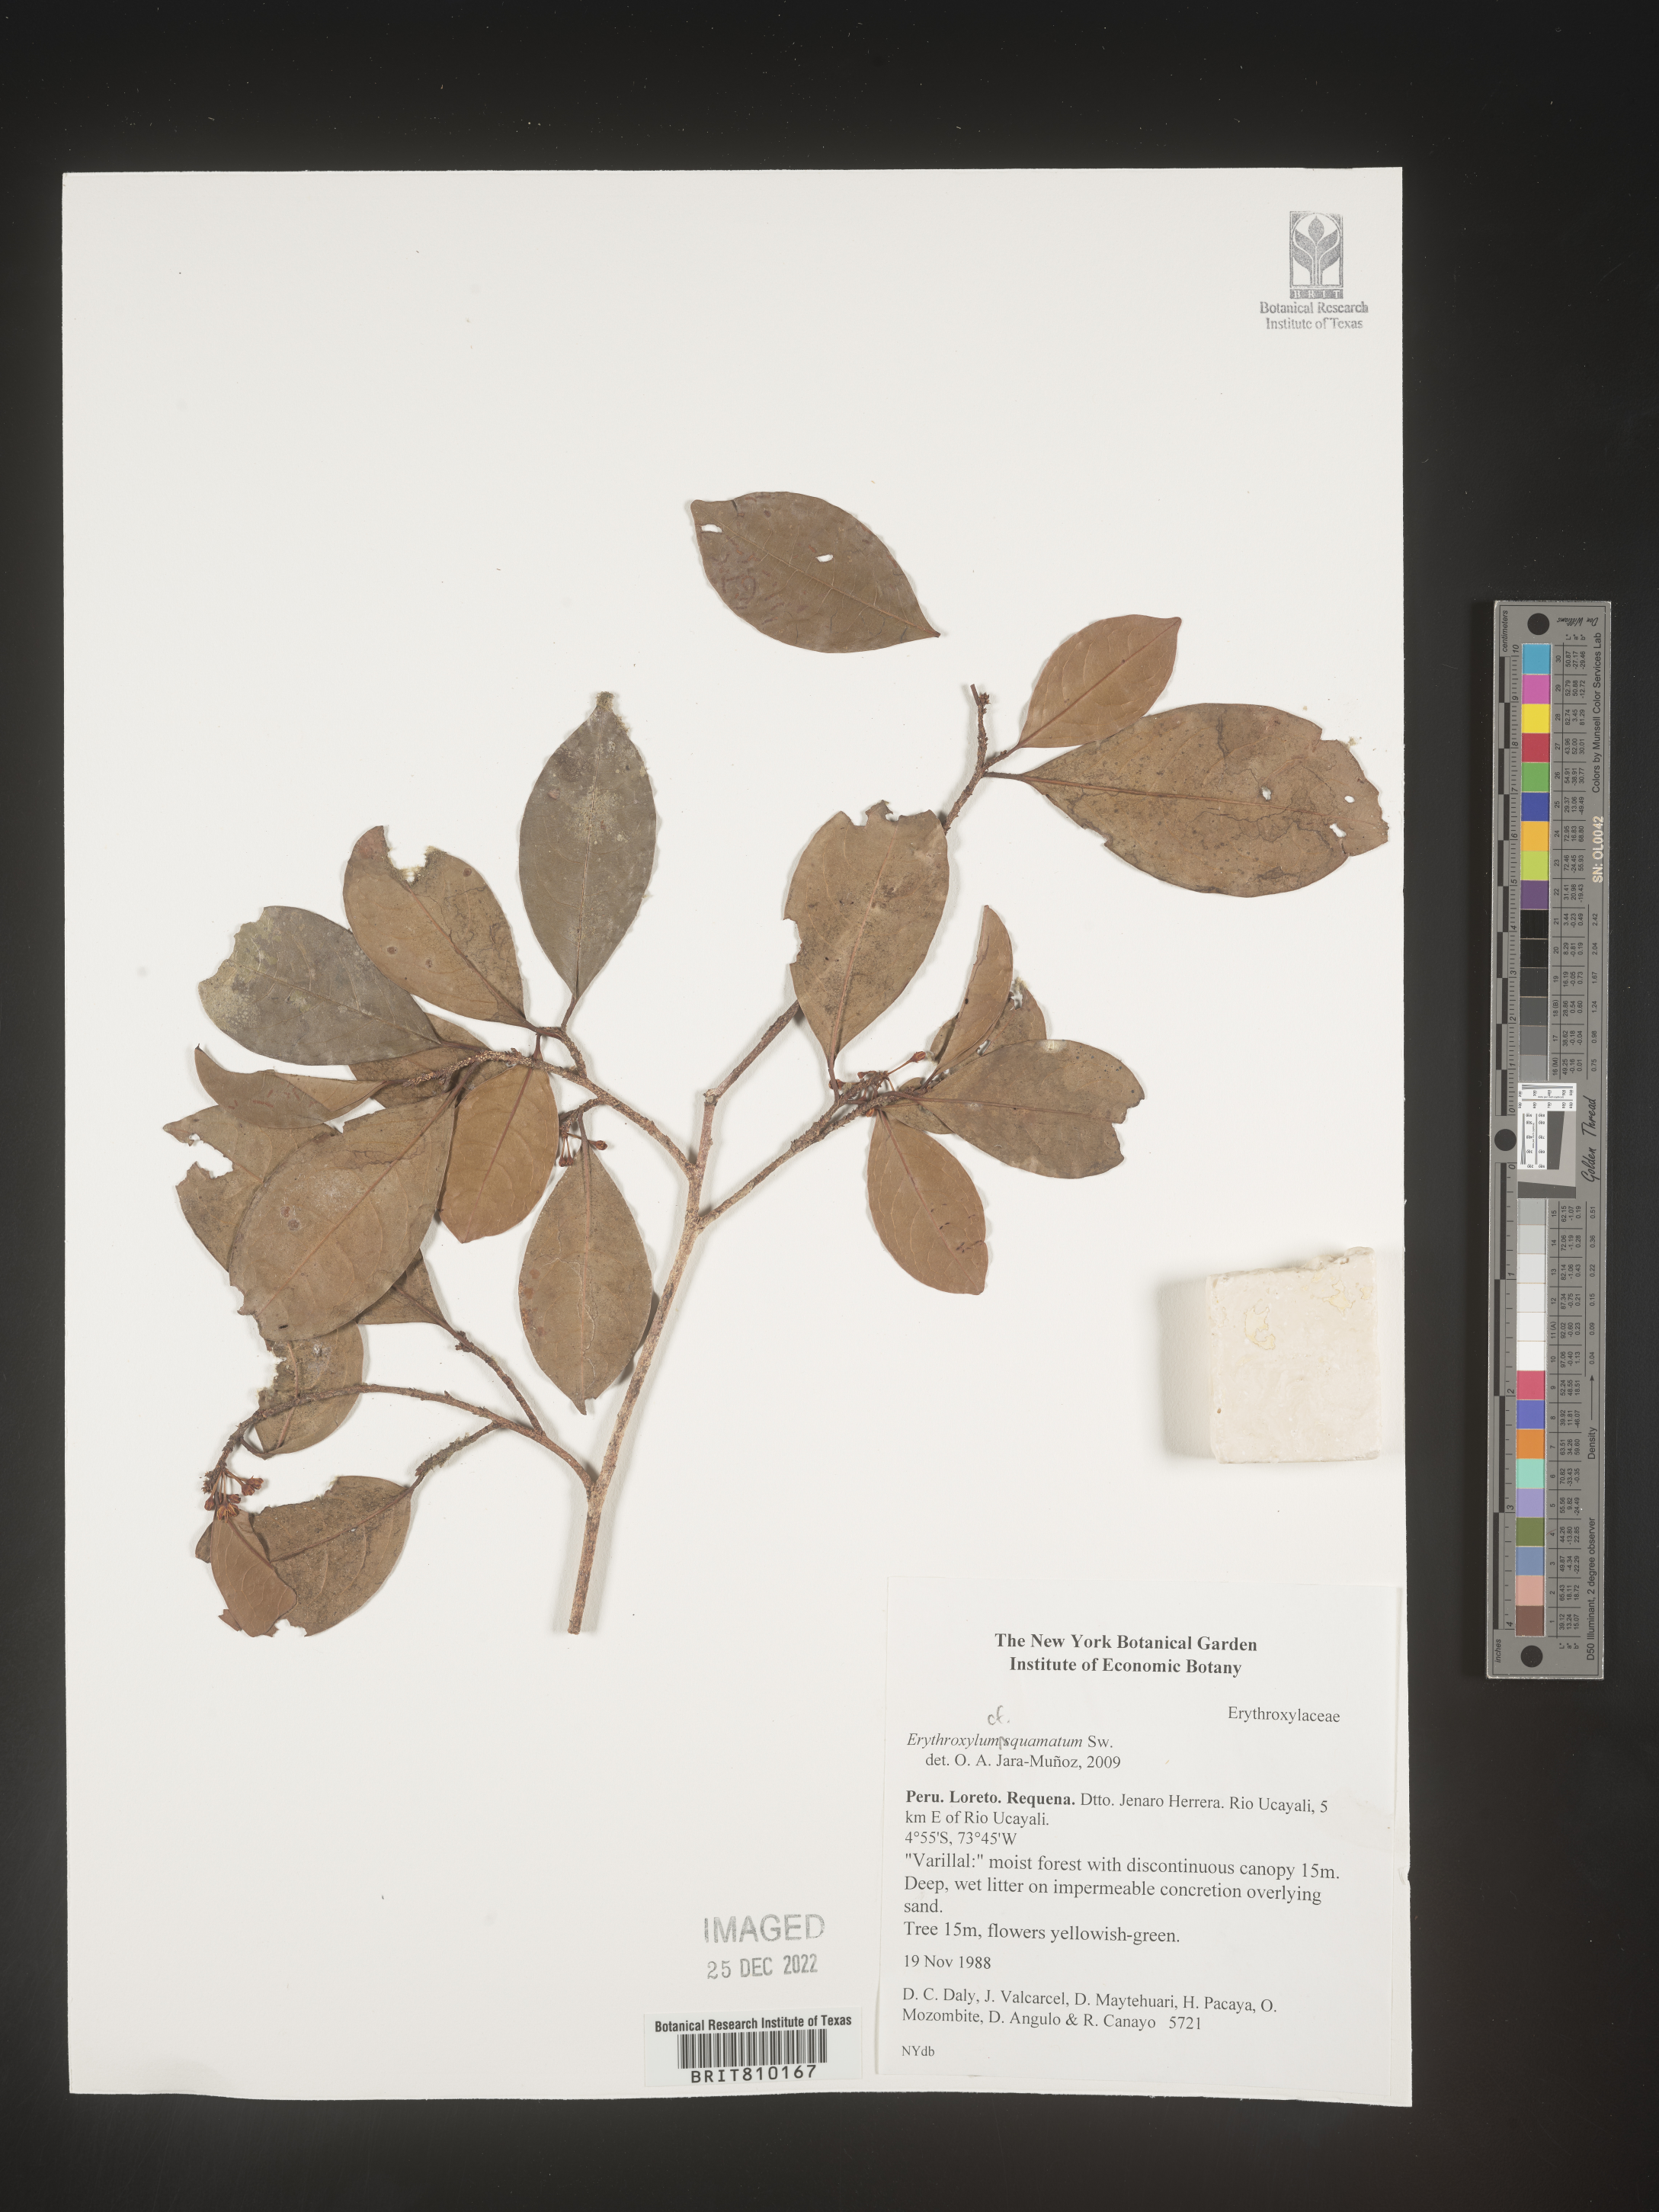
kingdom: Plantae
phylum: Tracheophyta
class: Magnoliopsida
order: Malpighiales
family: Erythroxylaceae
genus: Erythroxylum
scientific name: Erythroxylum
